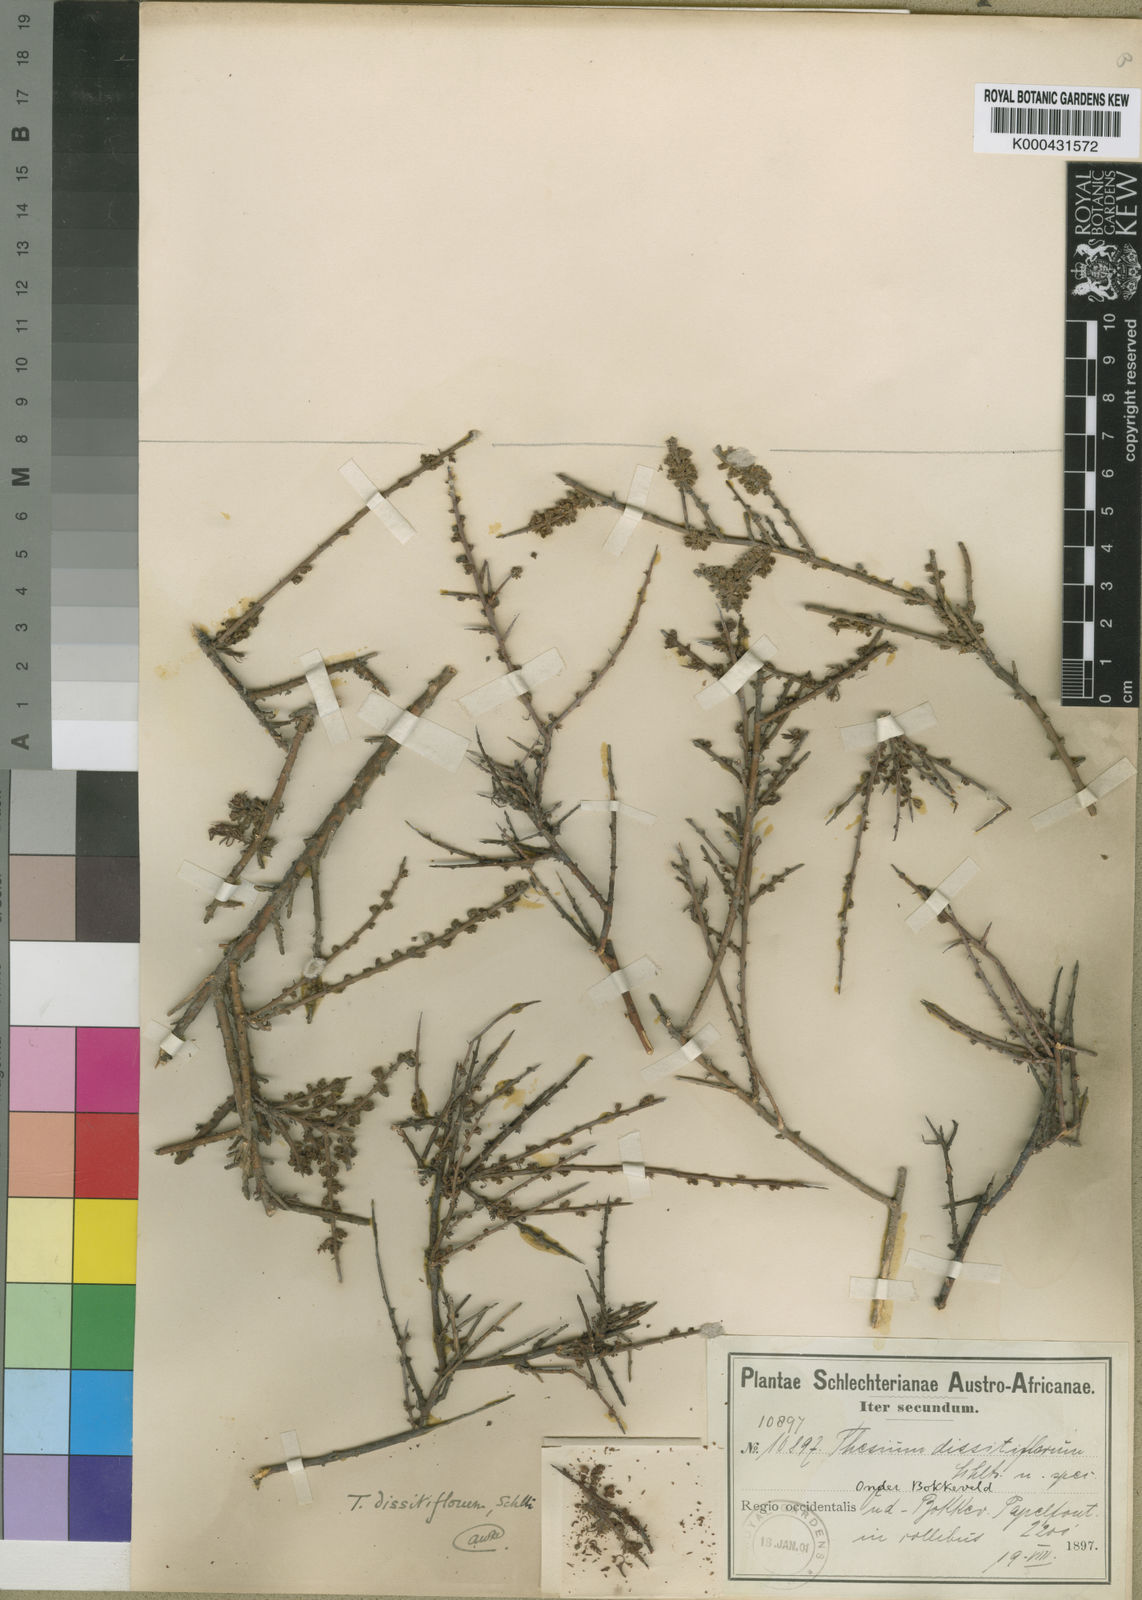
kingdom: Plantae
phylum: Tracheophyta
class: Magnoliopsida
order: Santalales
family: Thesiaceae
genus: Thesium
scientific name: Thesium dissitiflorum
